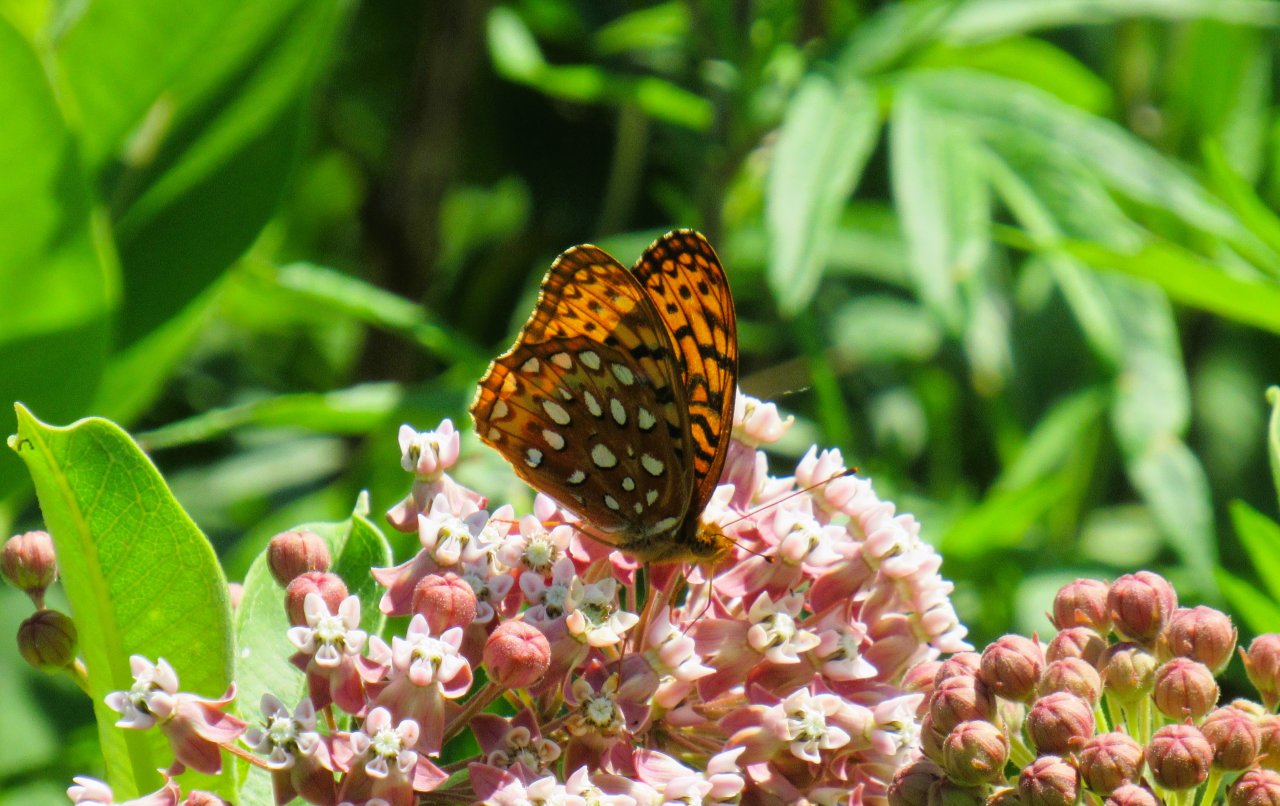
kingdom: Animalia
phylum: Arthropoda
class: Insecta
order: Lepidoptera
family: Nymphalidae
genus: Speyeria
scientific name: Speyeria aphrodite
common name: Aphrodite Fritillary
